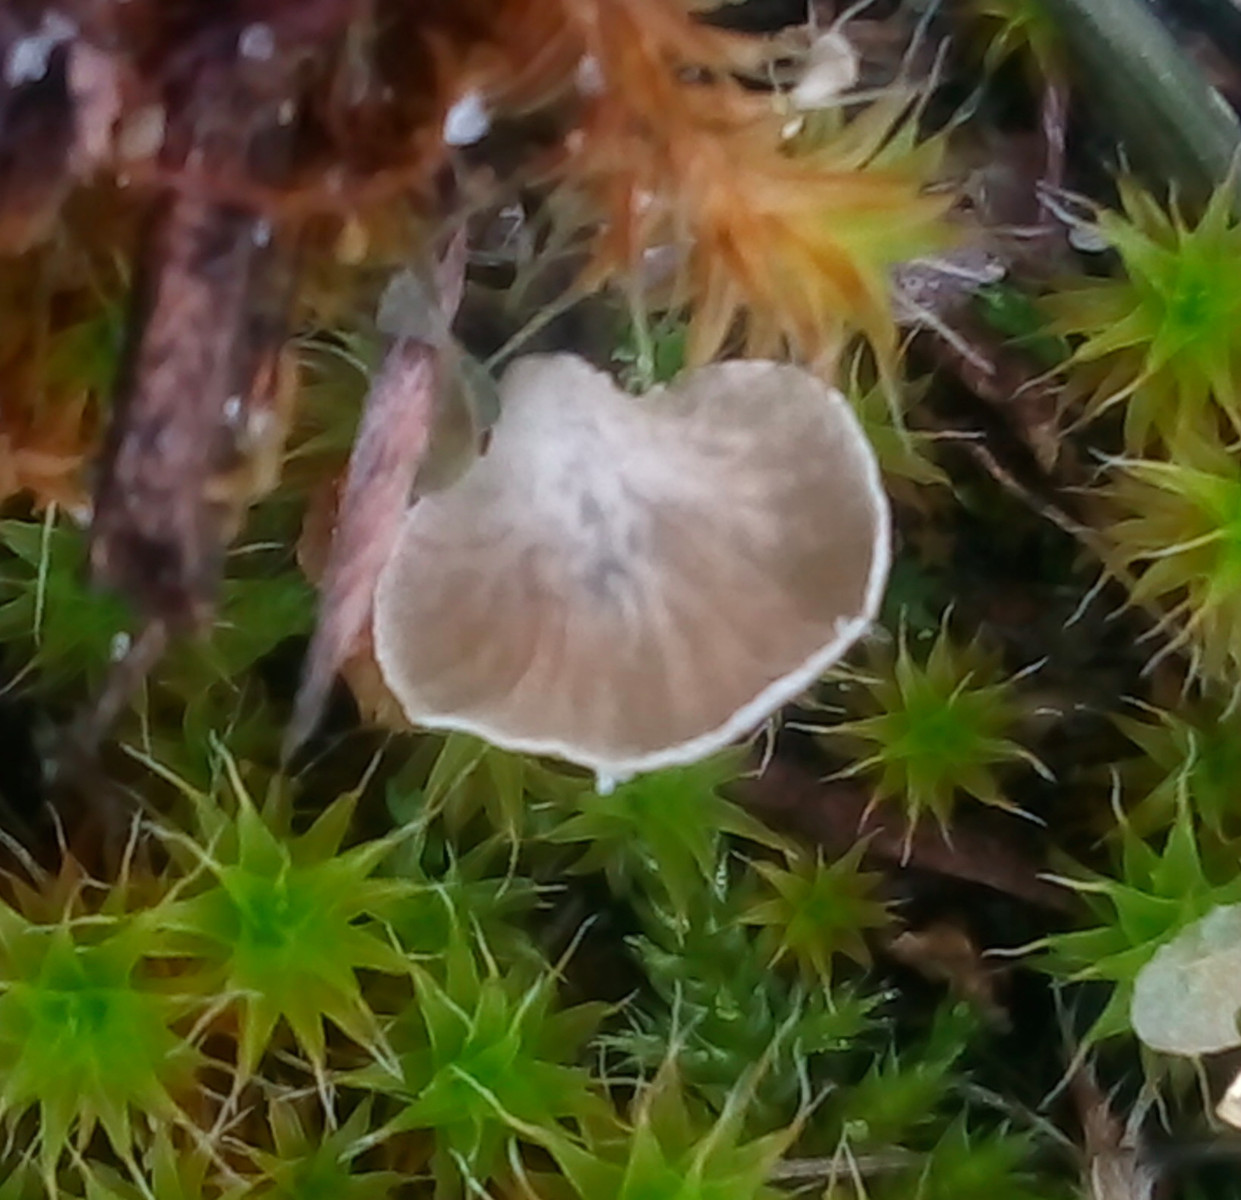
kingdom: Fungi
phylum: Basidiomycota
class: Agaricomycetes
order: Agaricales
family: Hygrophoraceae
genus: Arrhenia
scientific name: Arrhenia spathulata
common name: skæv fontænehat
